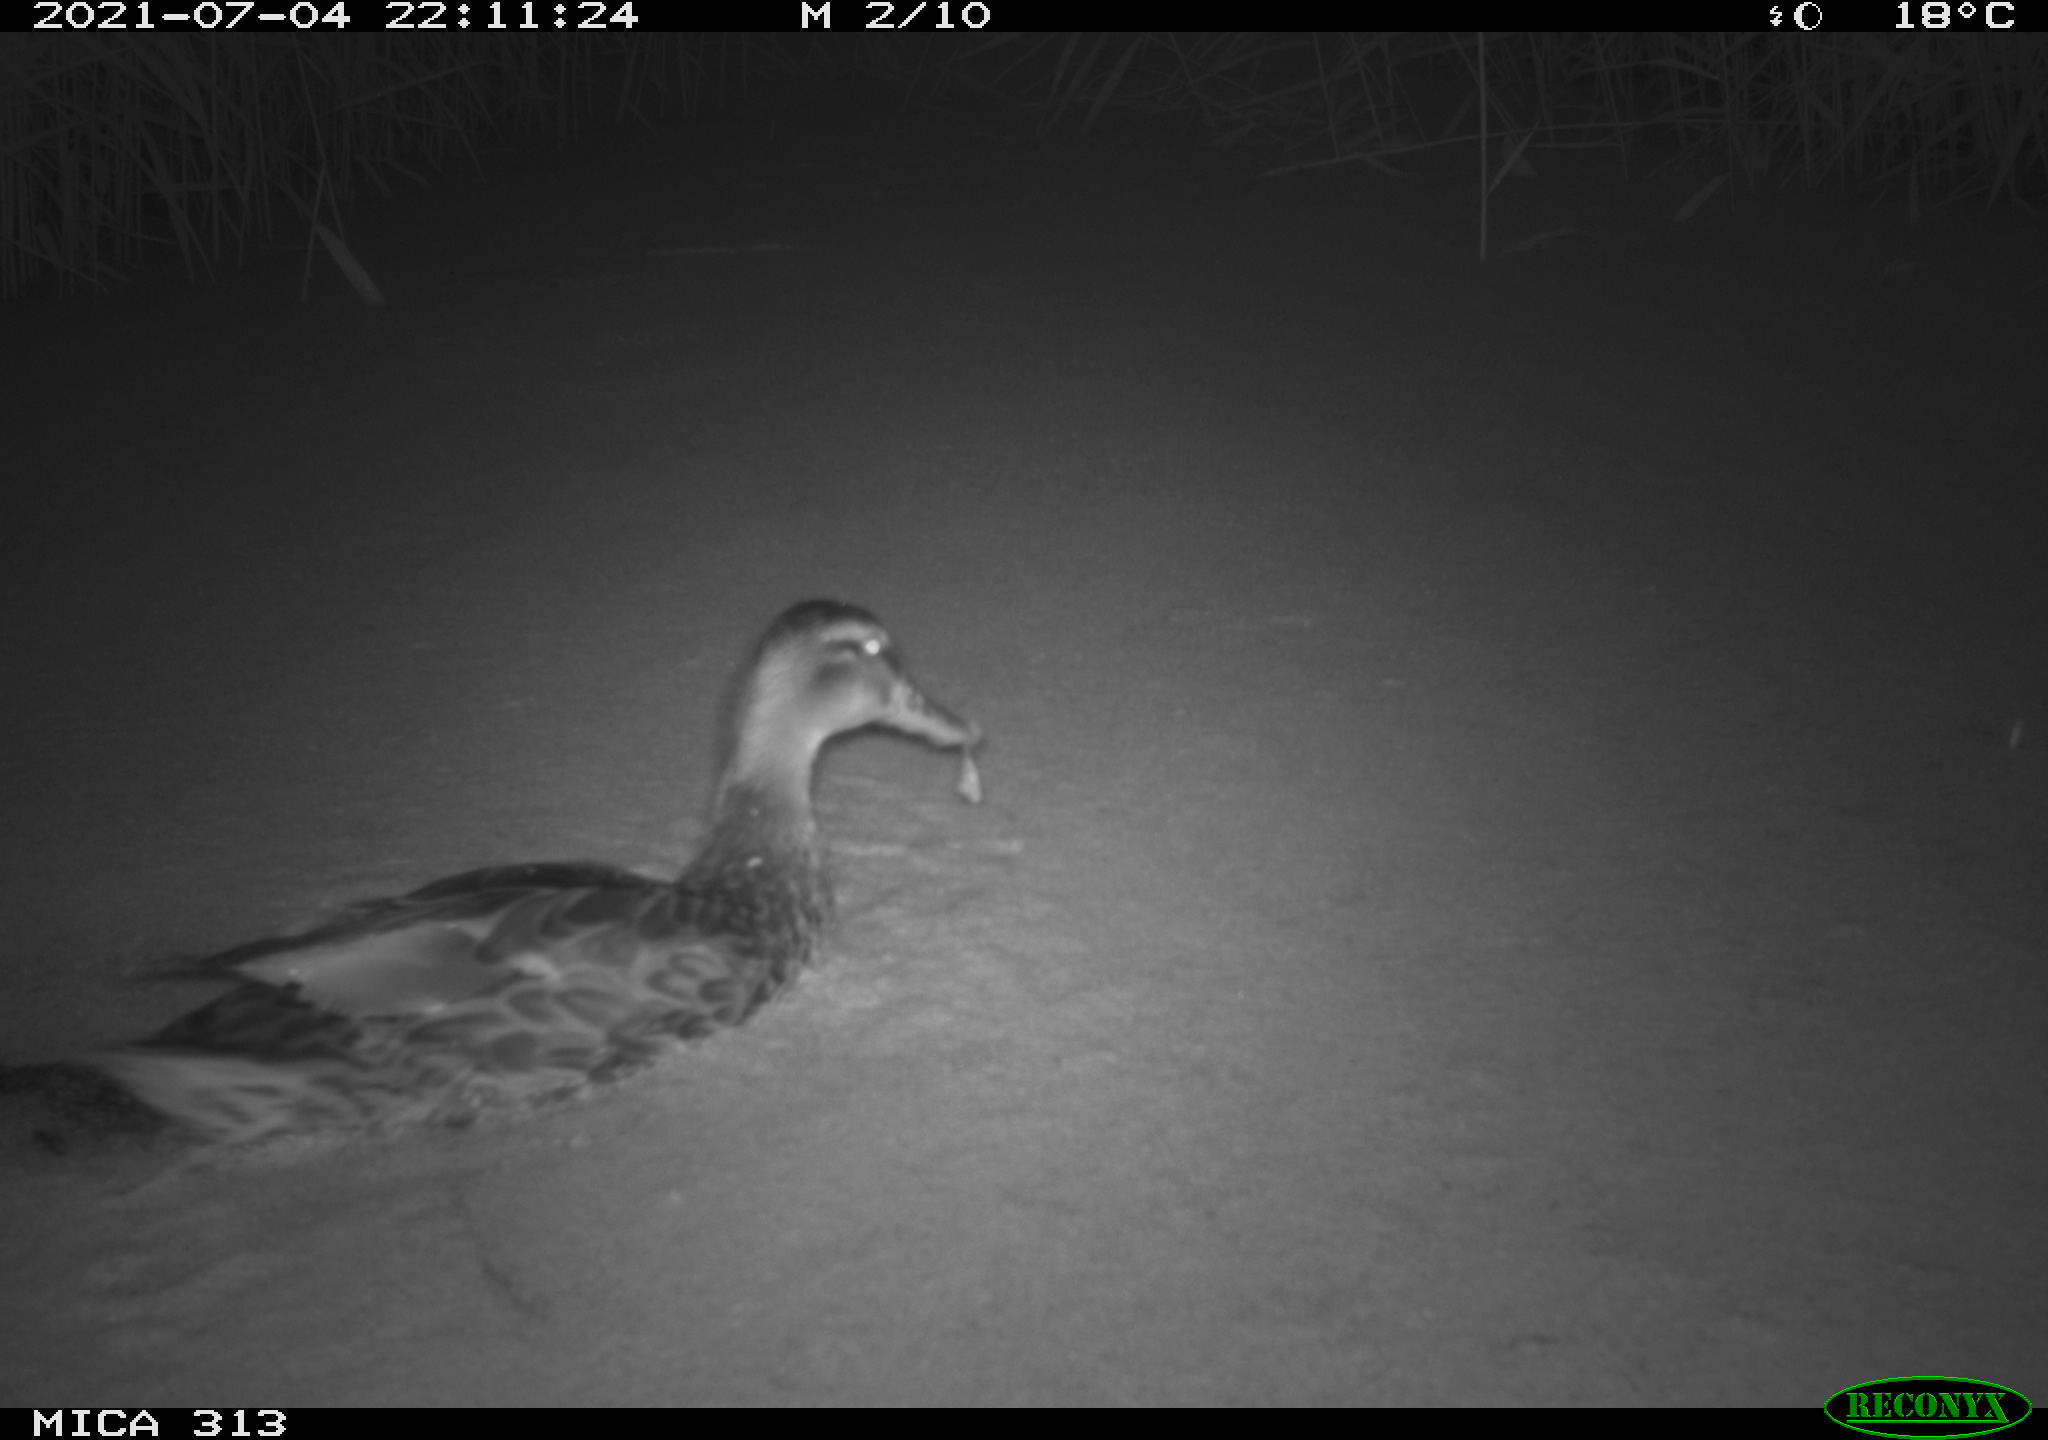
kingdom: Animalia
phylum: Chordata
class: Aves
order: Anseriformes
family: Anatidae
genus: Anas
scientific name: Anas
